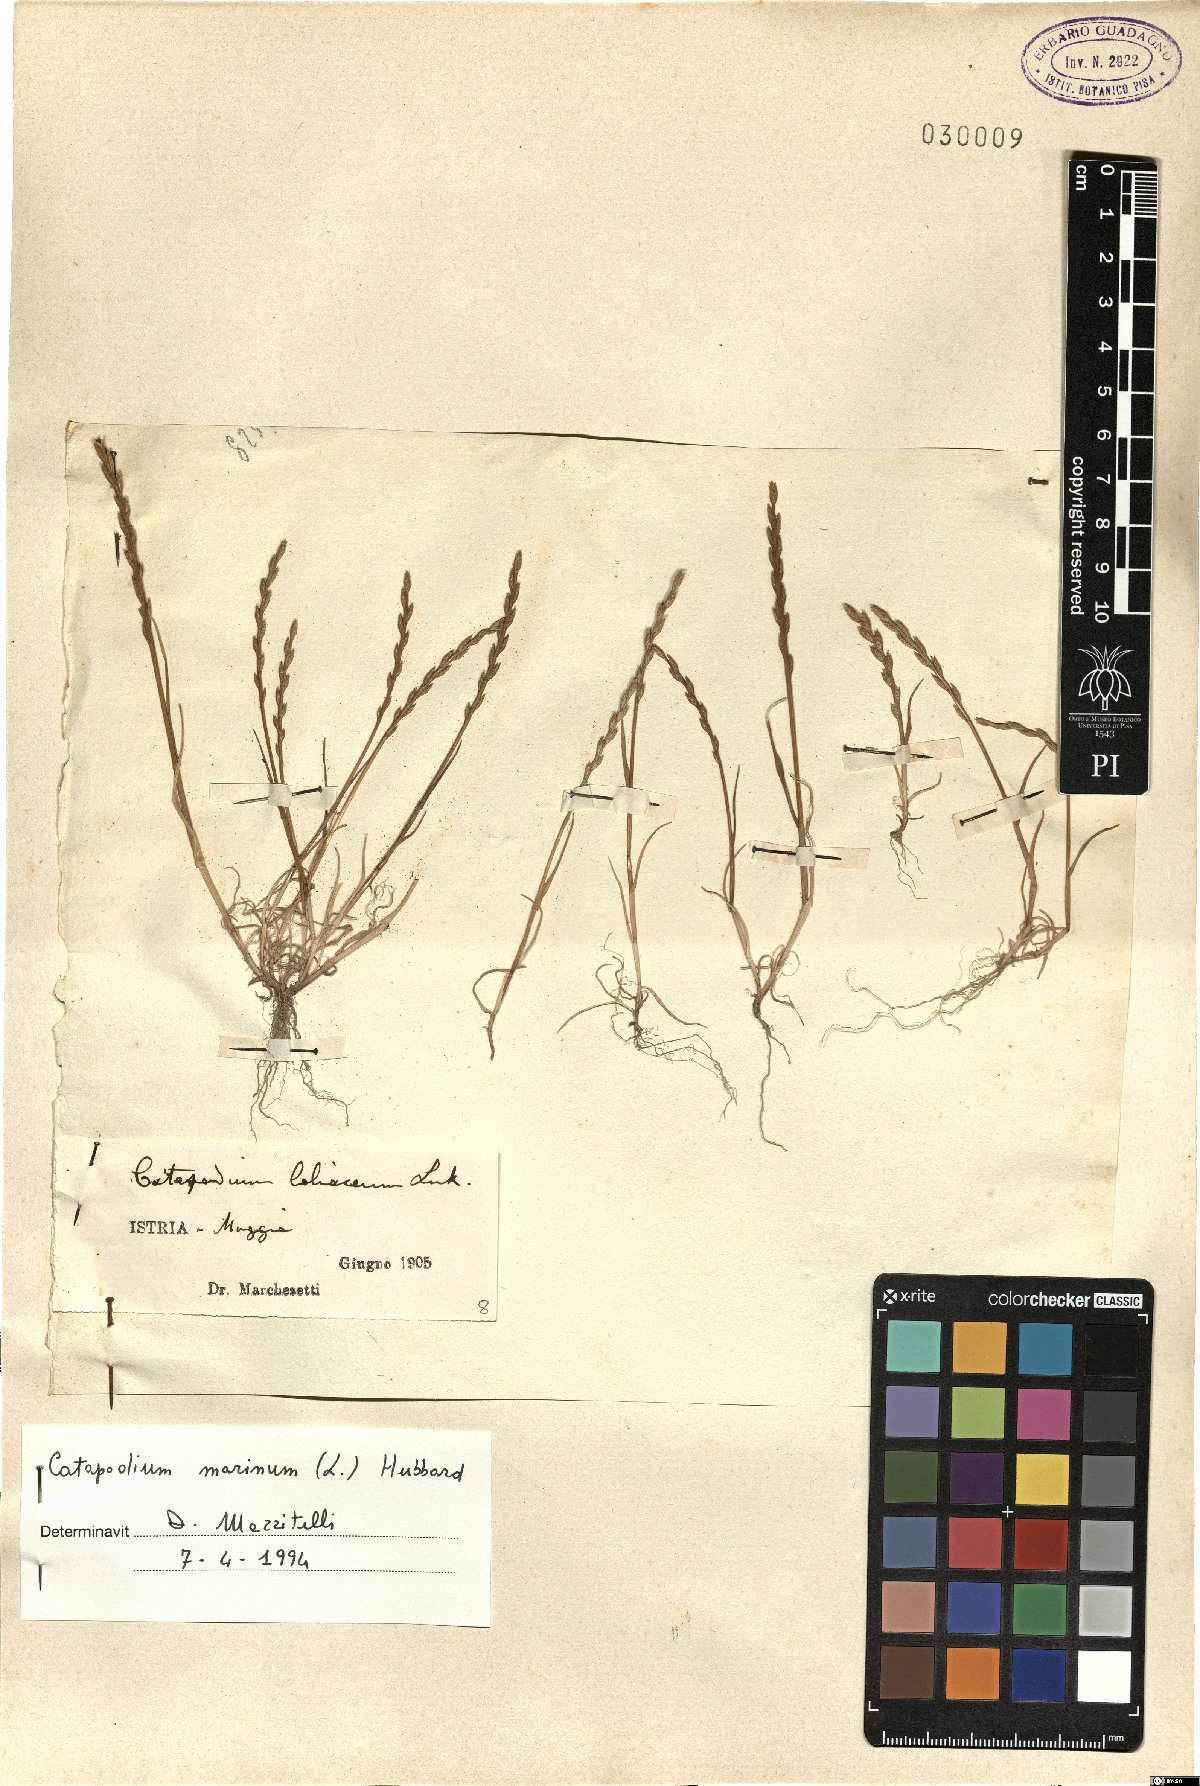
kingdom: Plantae
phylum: Tracheophyta
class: Liliopsida
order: Poales
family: Poaceae
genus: Catapodium
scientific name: Catapodium marinum
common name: Sea fern-grass
